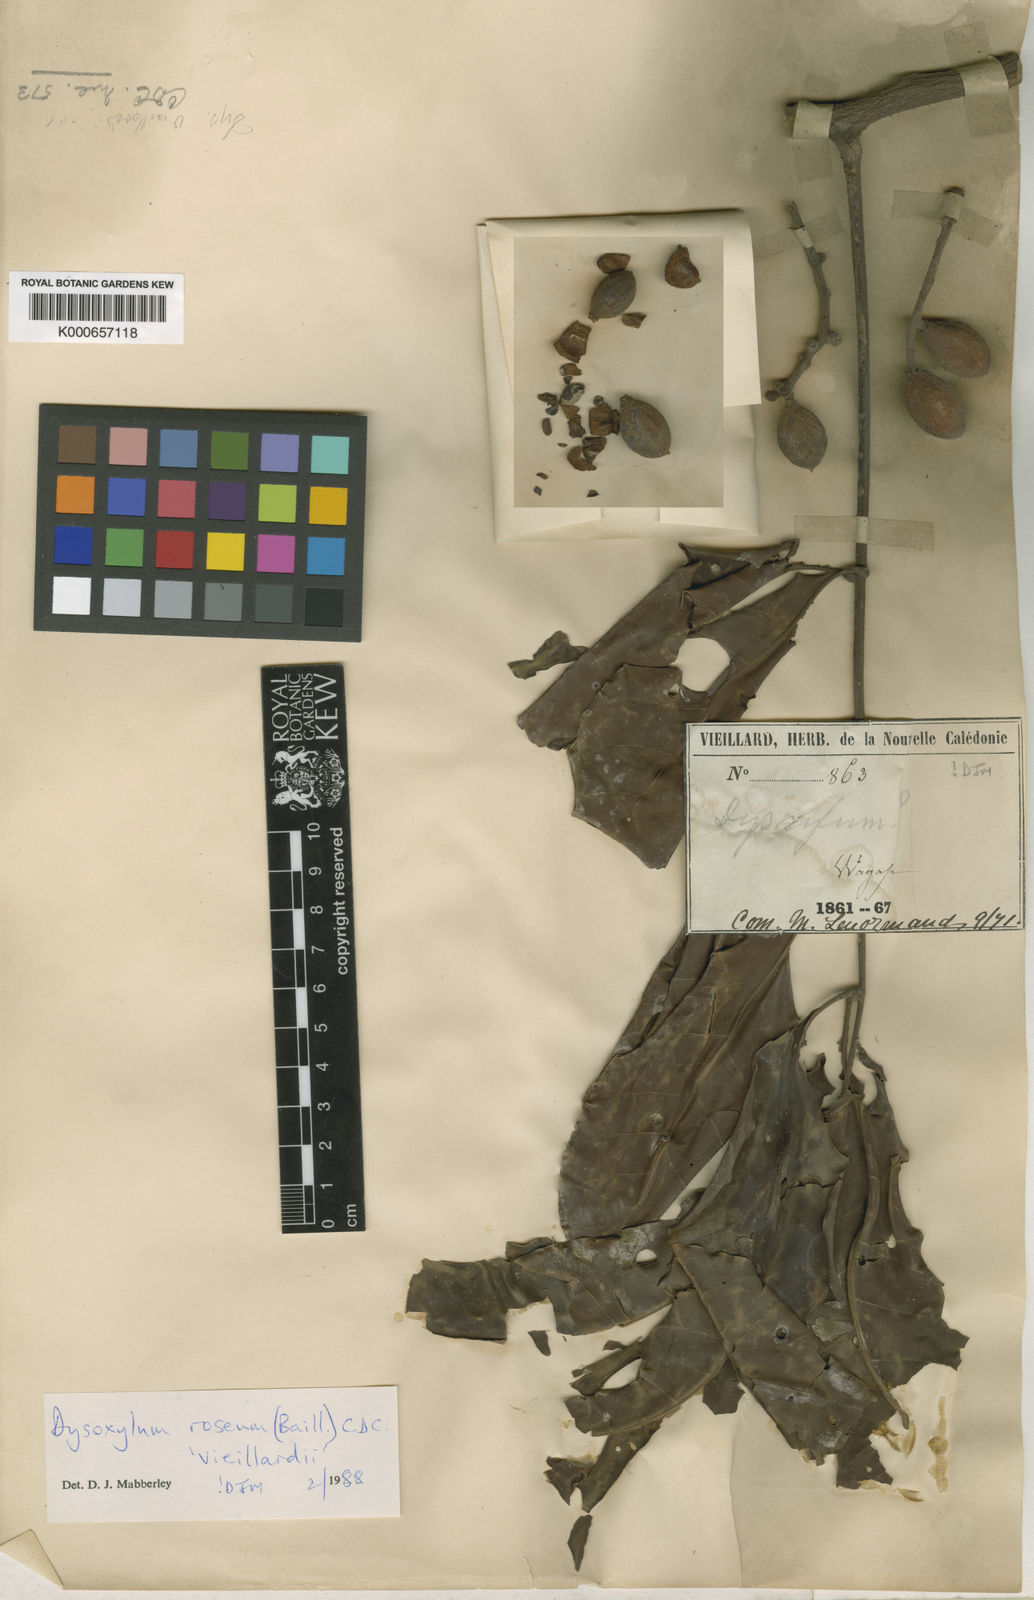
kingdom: Plantae
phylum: Tracheophyta
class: Magnoliopsida
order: Sapindales
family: Meliaceae
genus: Didymocheton
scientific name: Didymocheton roseus
